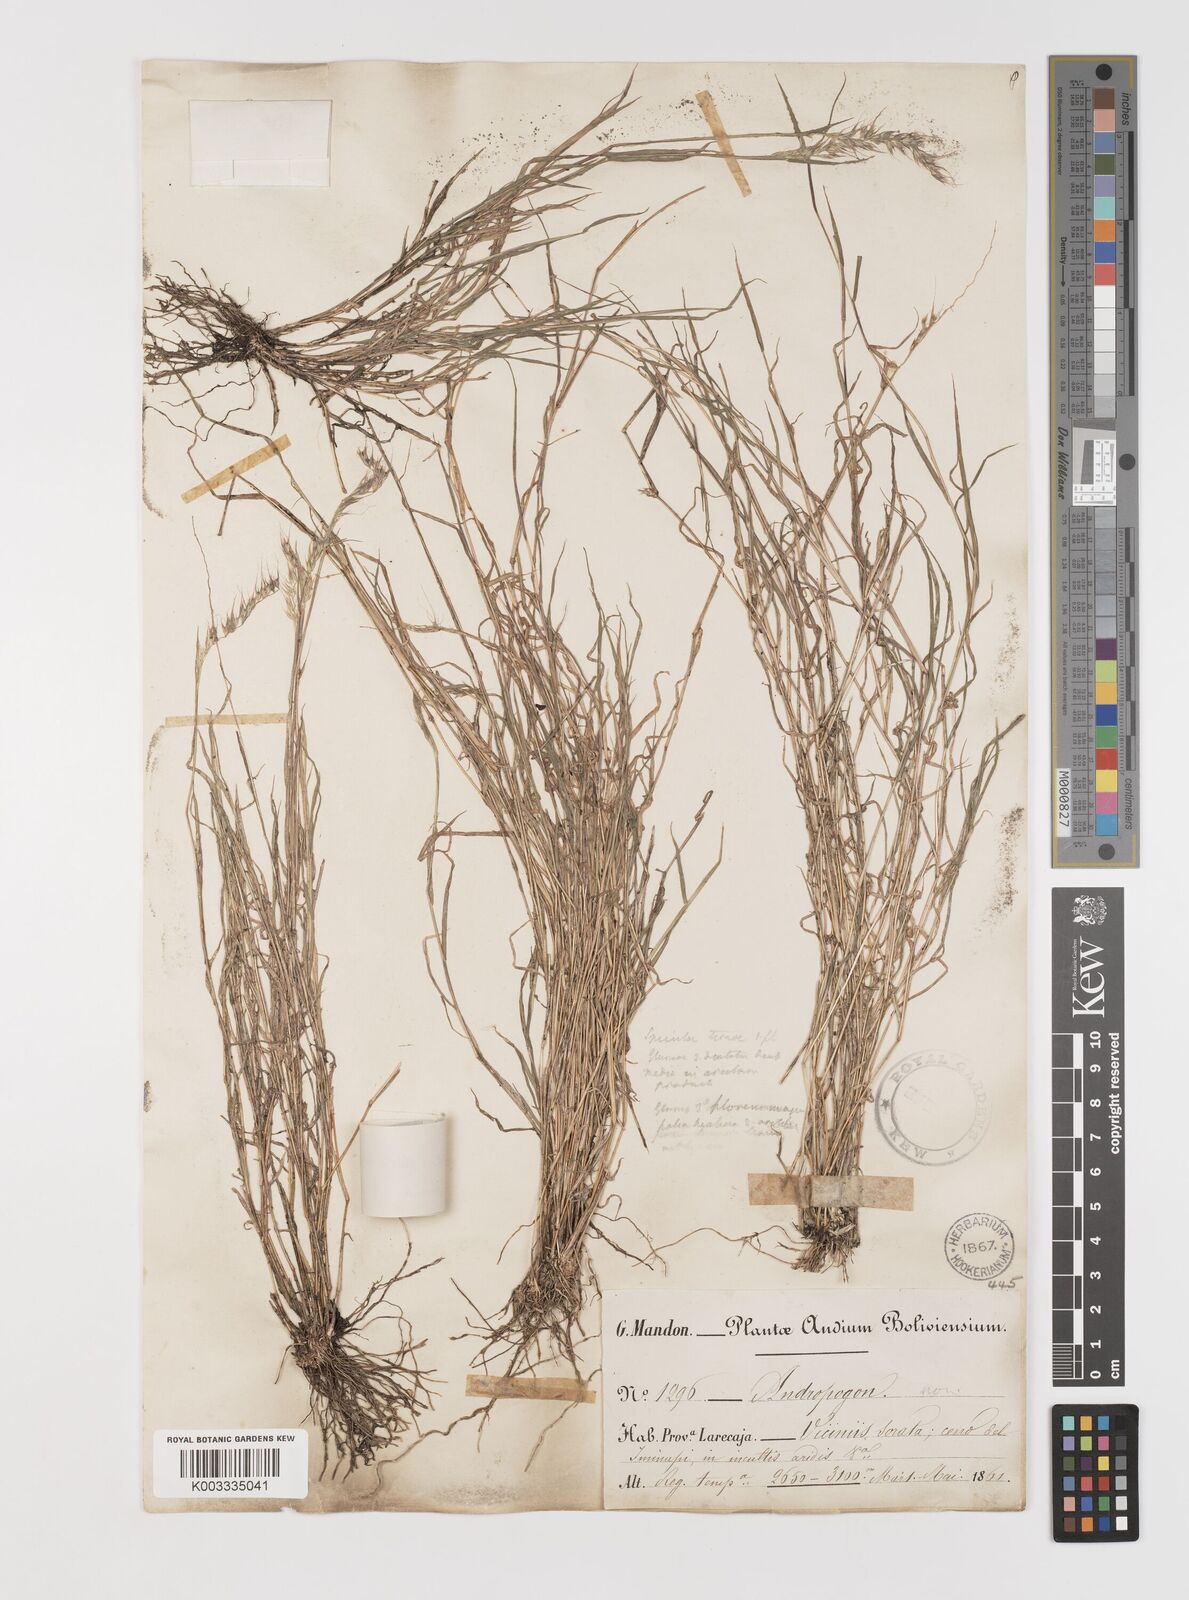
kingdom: Plantae
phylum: Tracheophyta
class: Liliopsida
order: Poales
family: Poaceae
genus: Muhlenbergia
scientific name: Muhlenbergia cenchroides
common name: Relaxgrass
